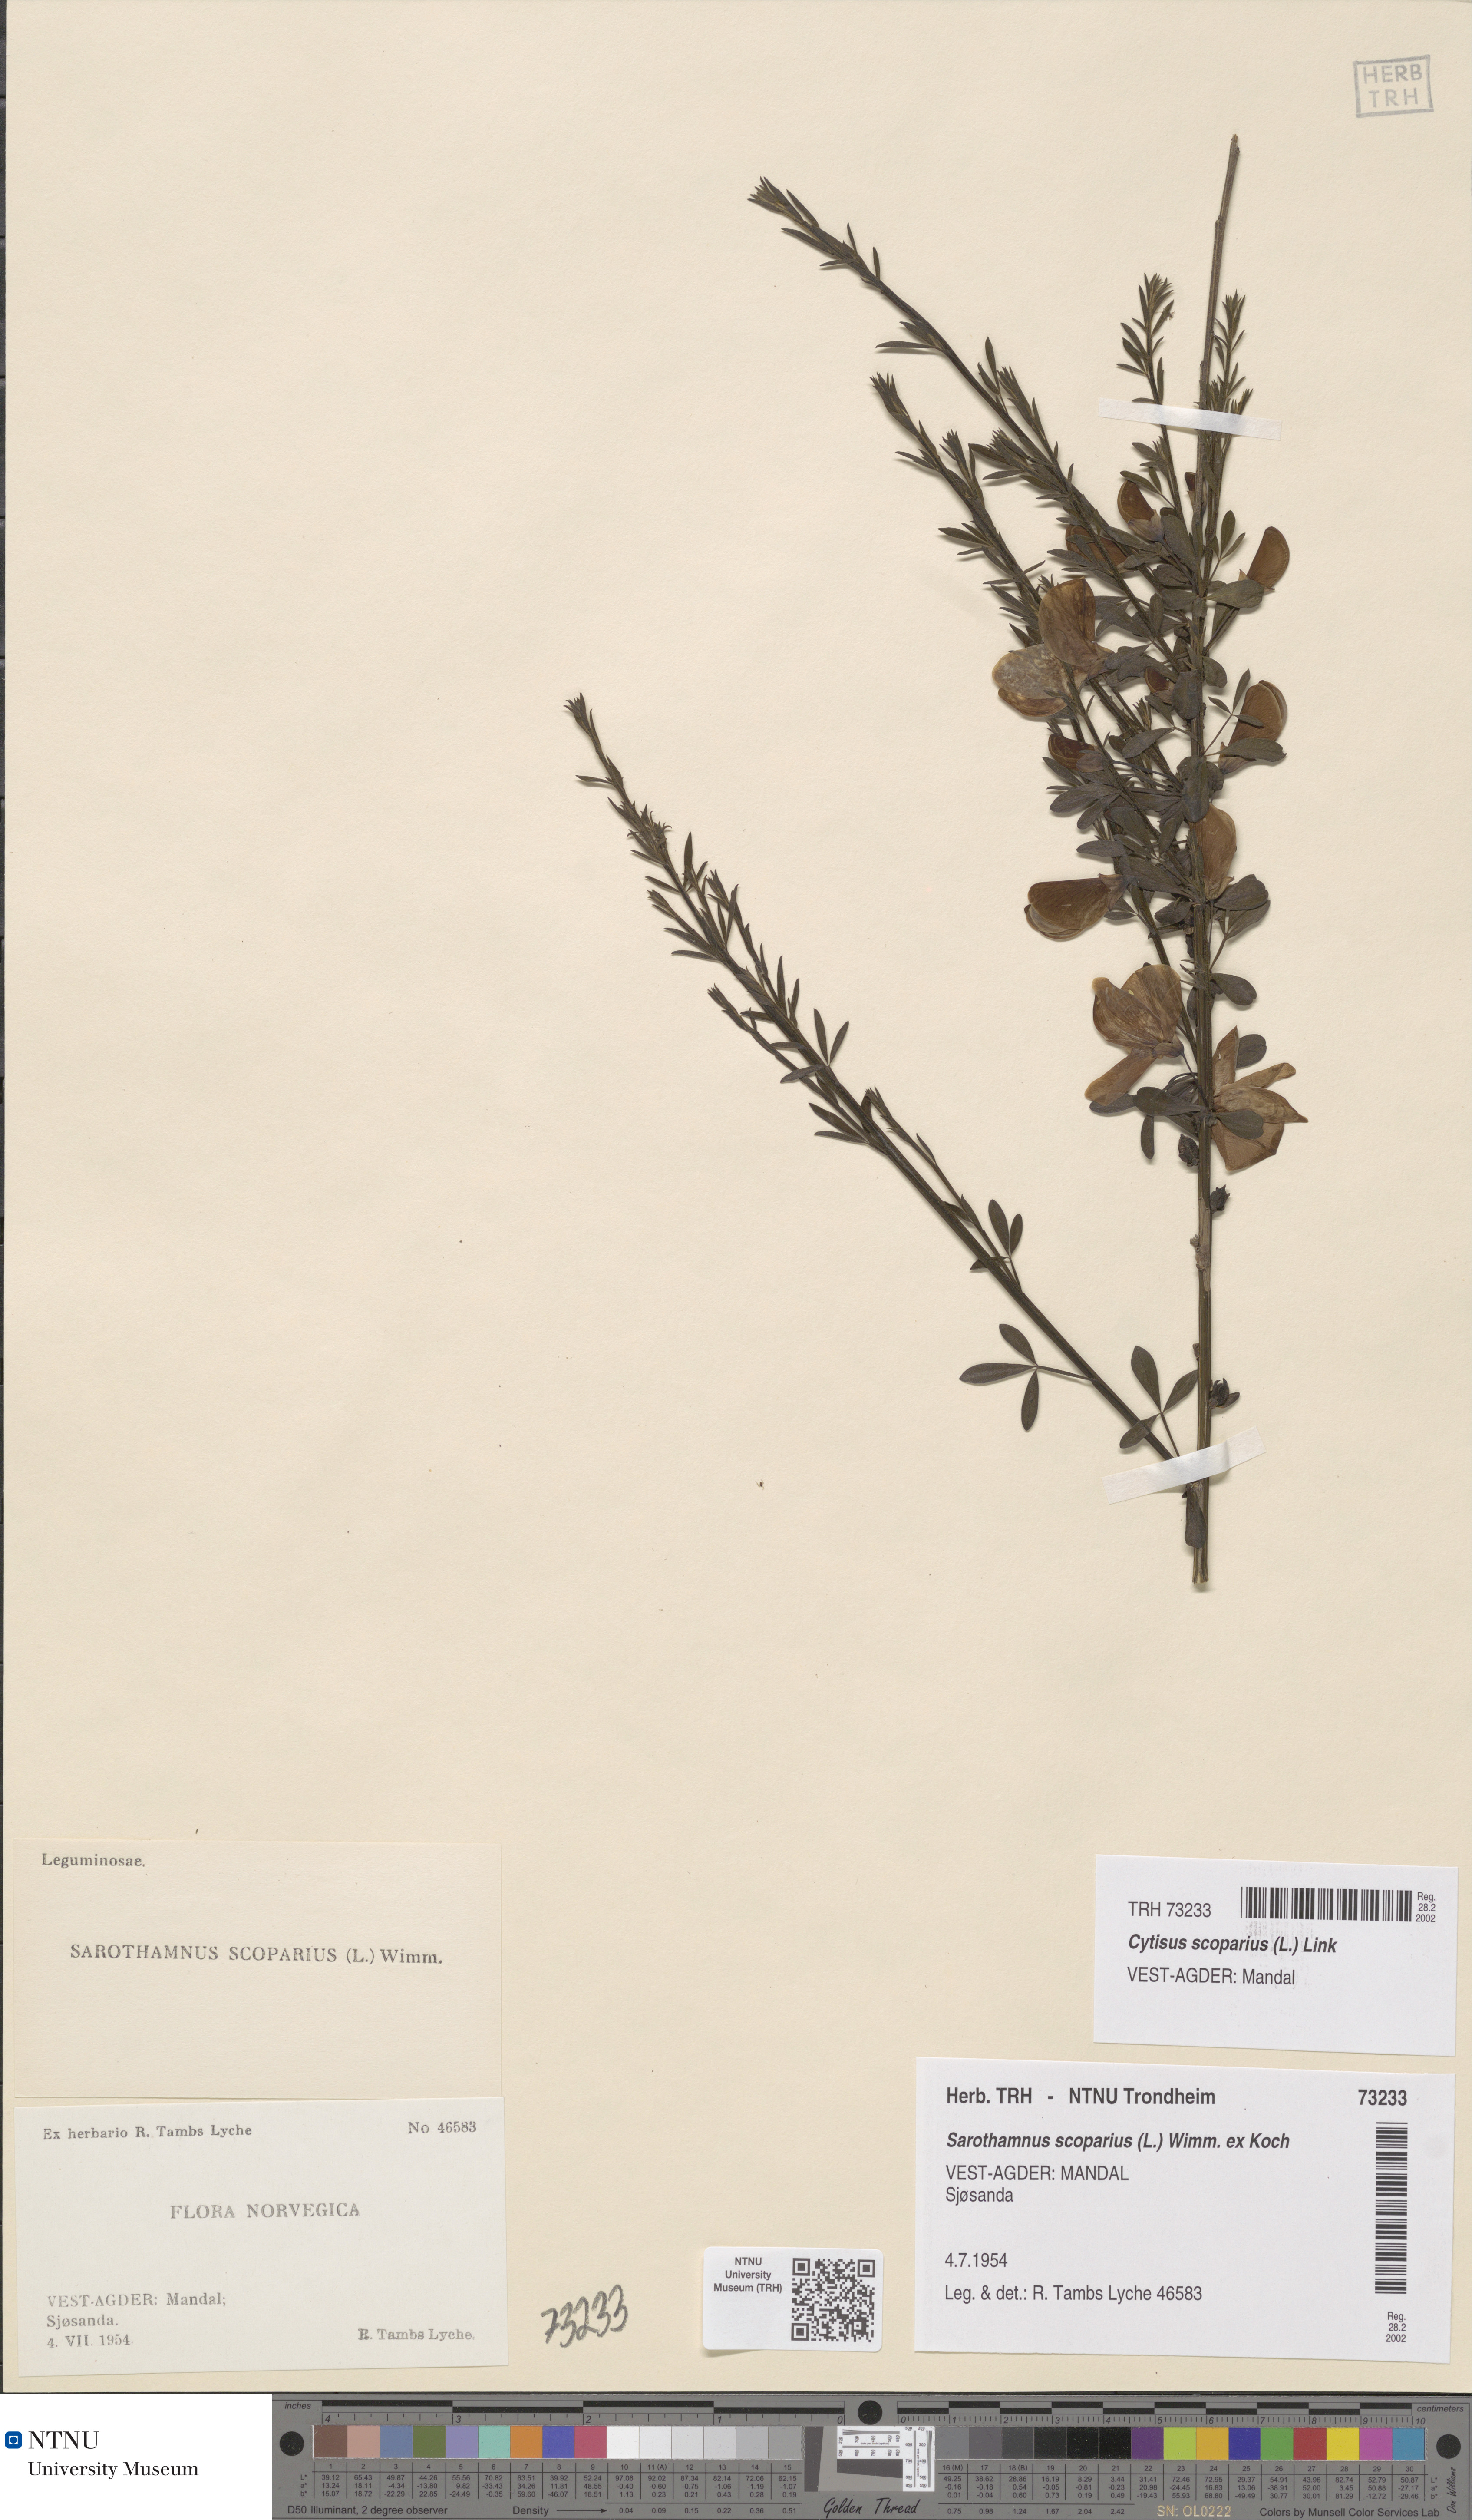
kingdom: Plantae
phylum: Tracheophyta
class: Magnoliopsida
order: Fabales
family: Fabaceae
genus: Cytisus
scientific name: Cytisus scoparius
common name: Scotch broom
